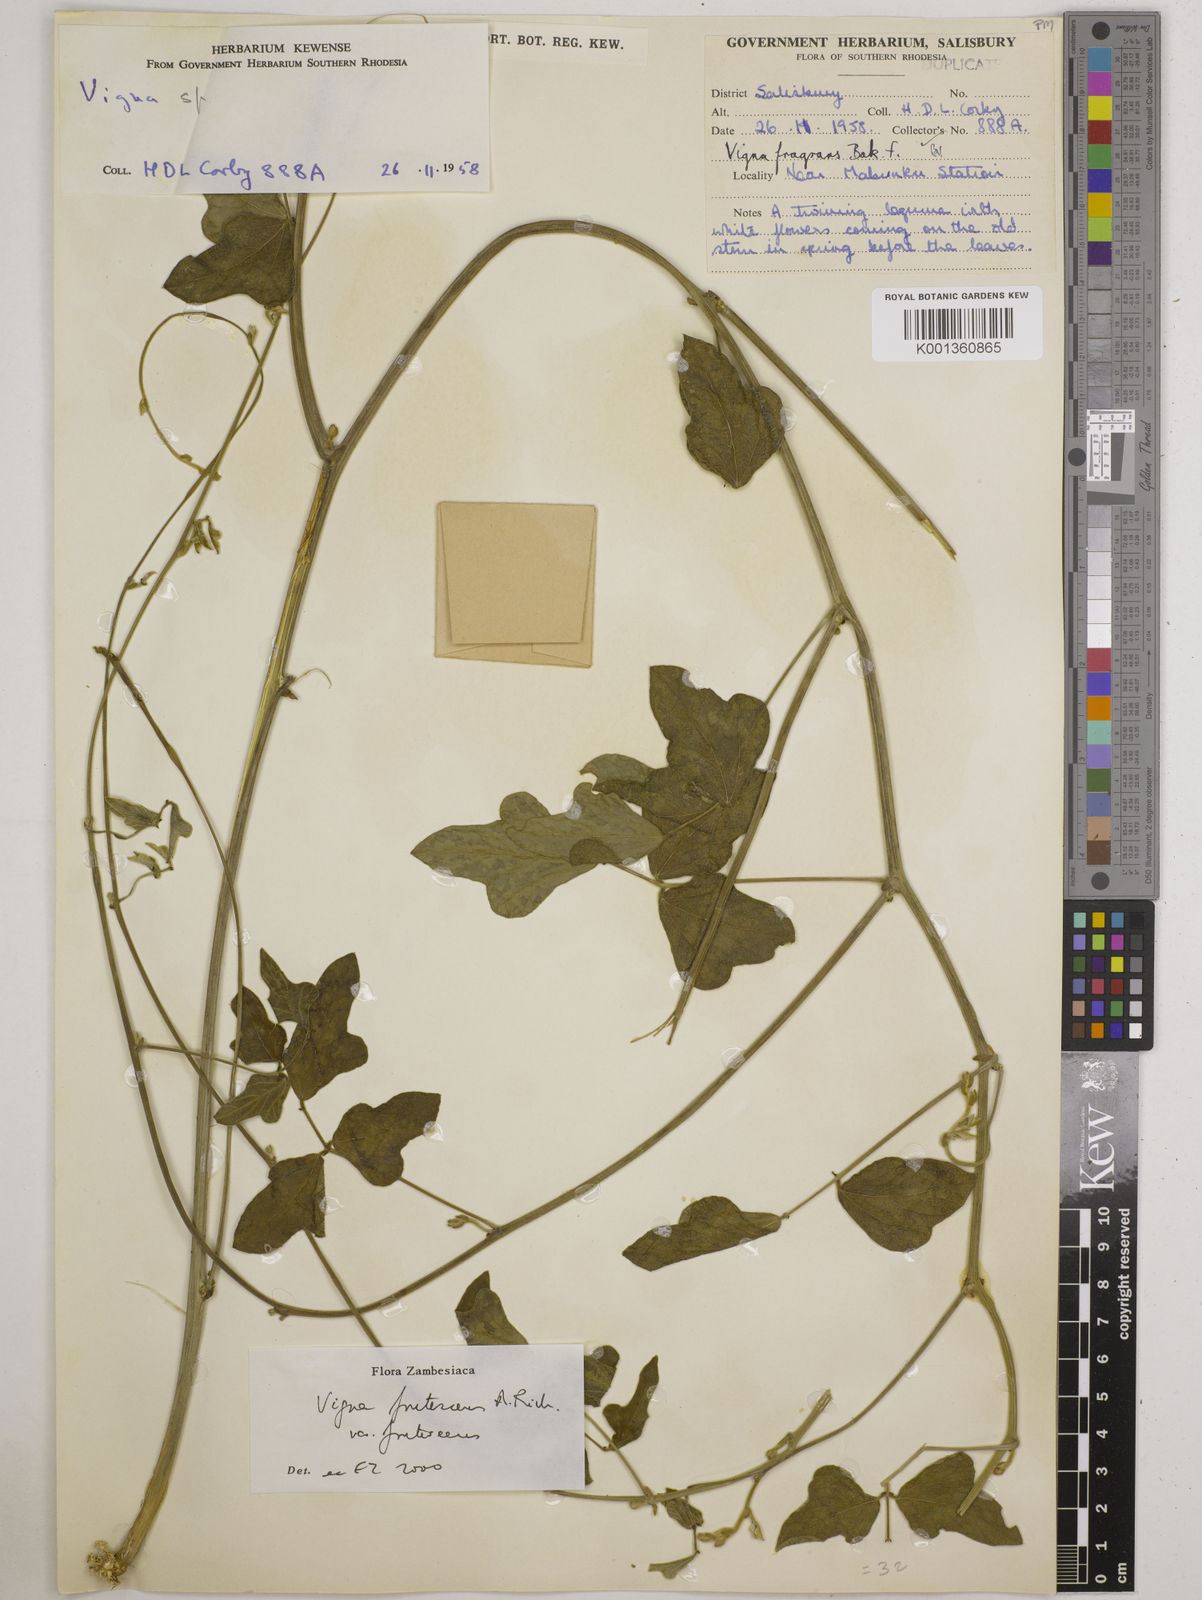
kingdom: Plantae
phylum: Tracheophyta
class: Magnoliopsida
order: Fabales
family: Fabaceae
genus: Vigna
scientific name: Vigna
